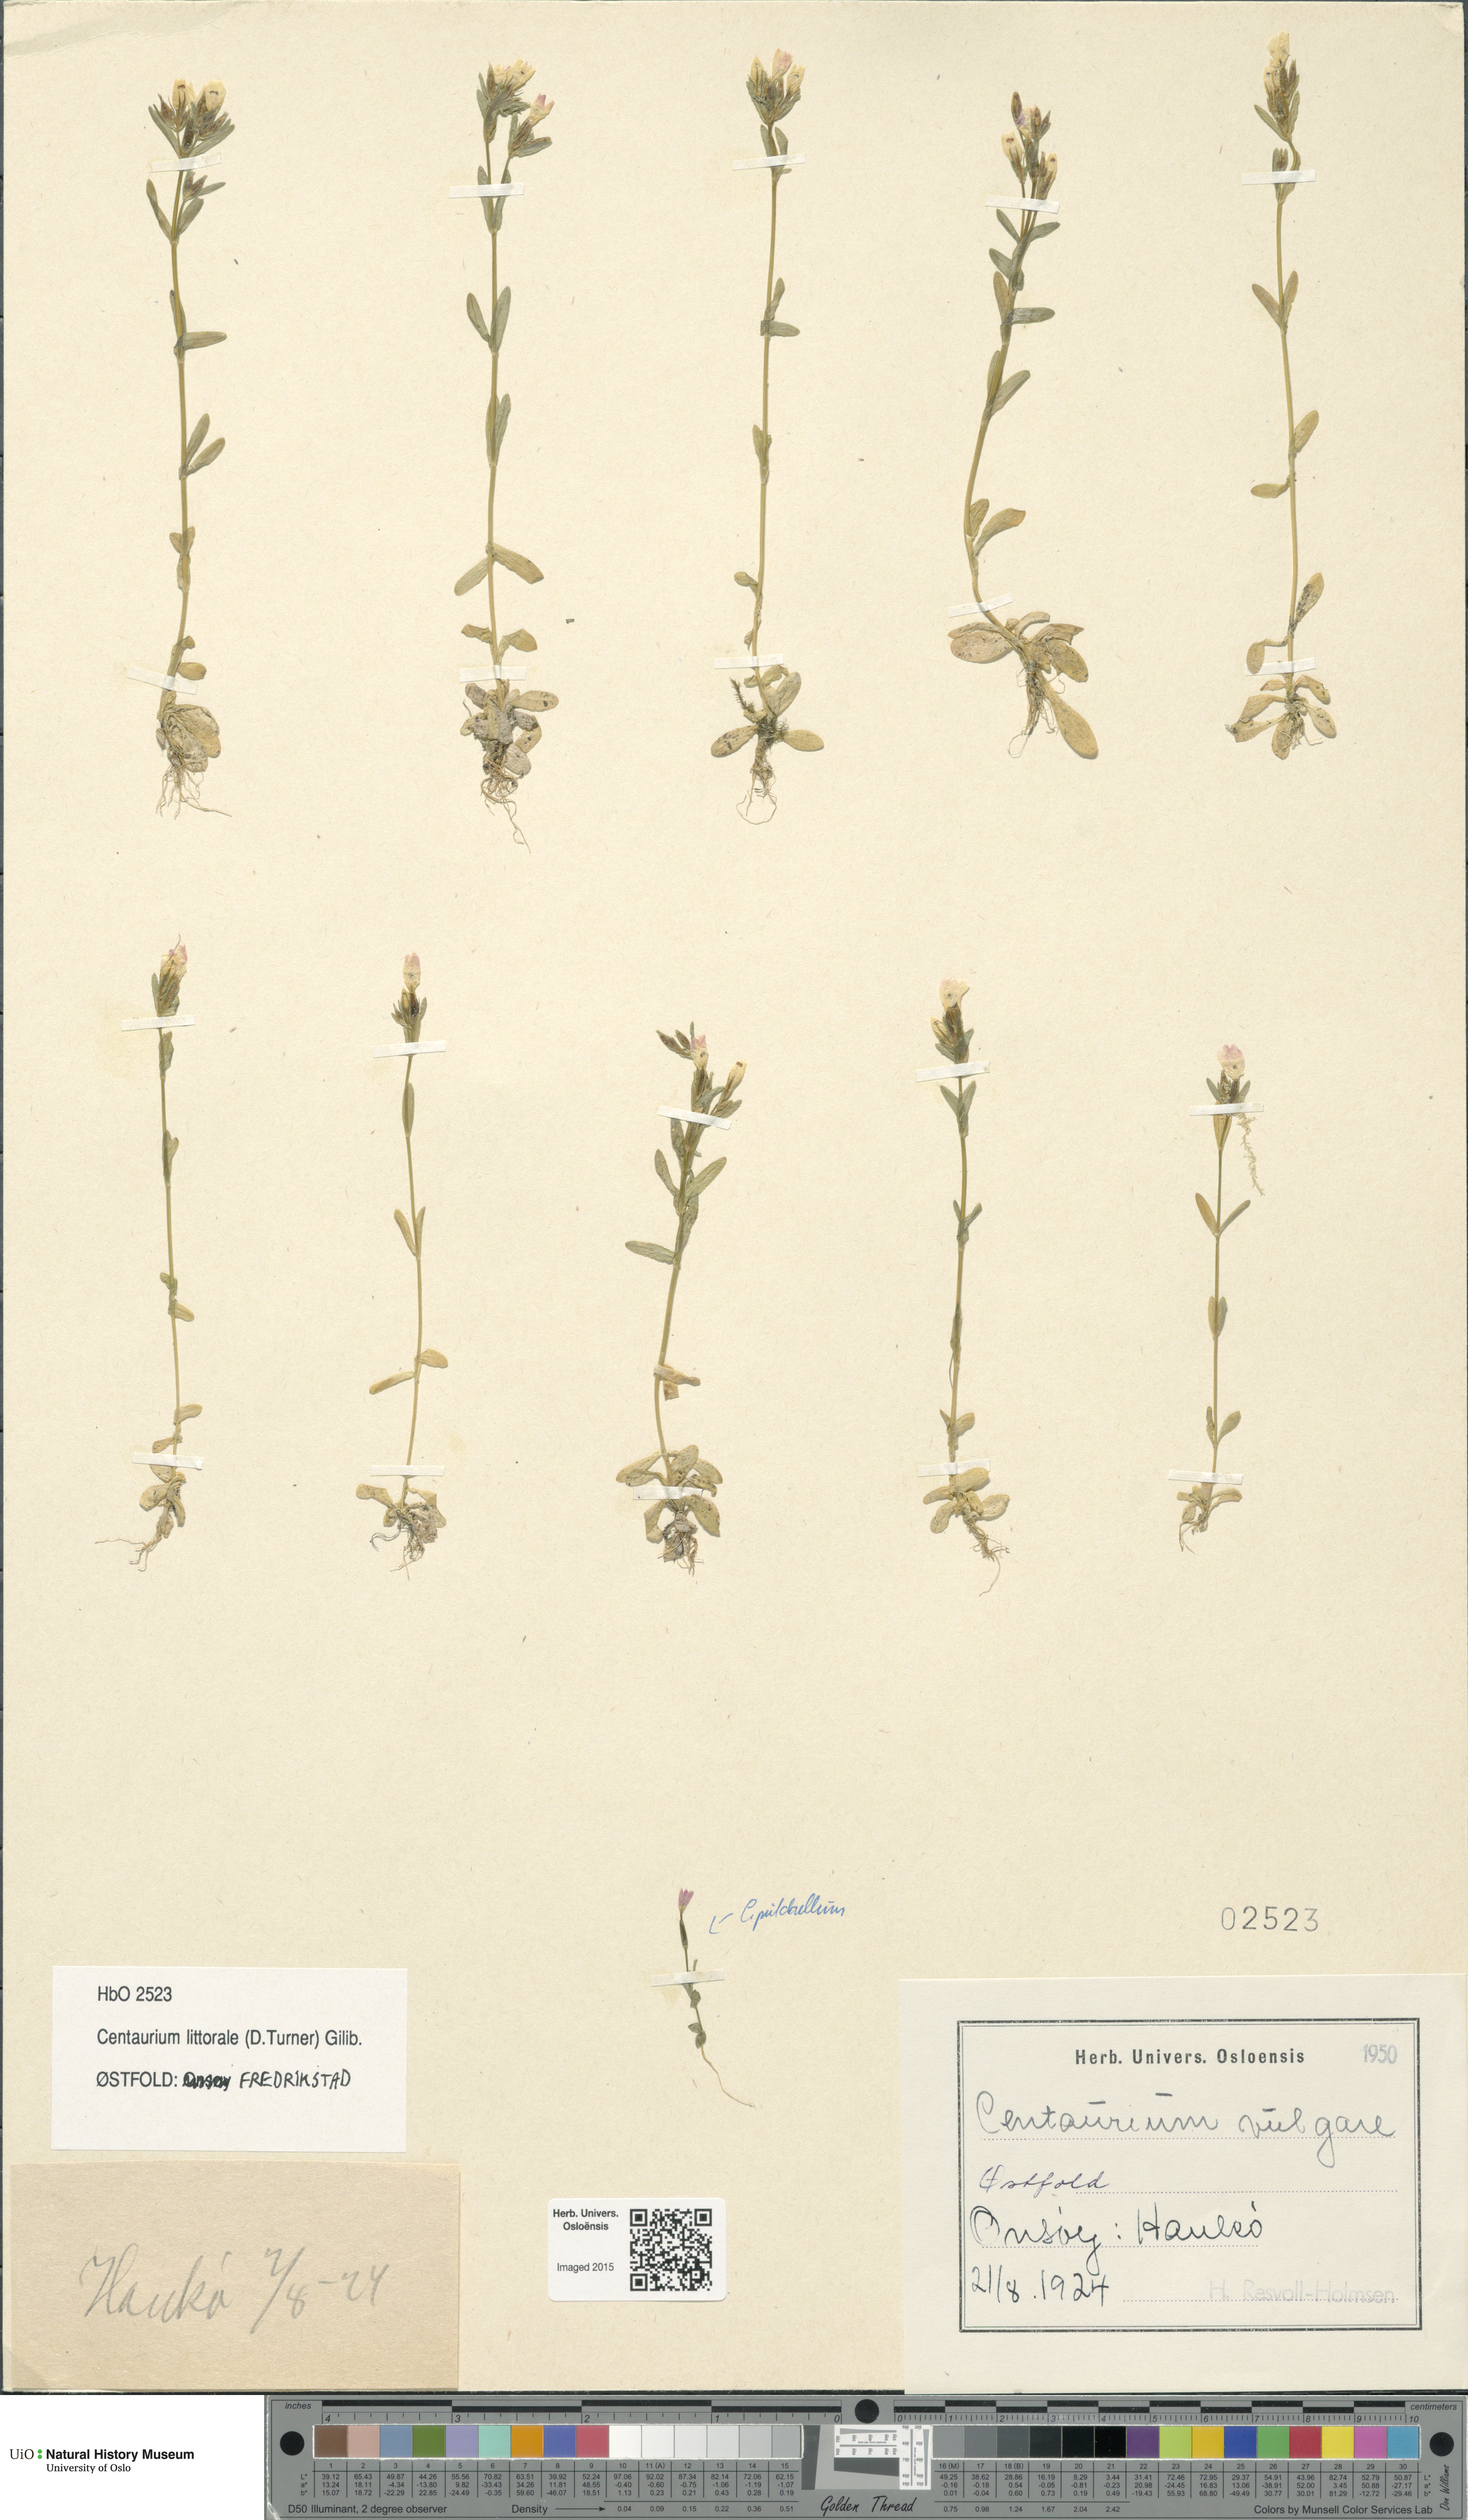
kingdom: Plantae
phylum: Tracheophyta
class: Magnoliopsida
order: Gentianales
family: Gentianaceae
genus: Centaurium
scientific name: Centaurium littorale
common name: Seaside centaury
